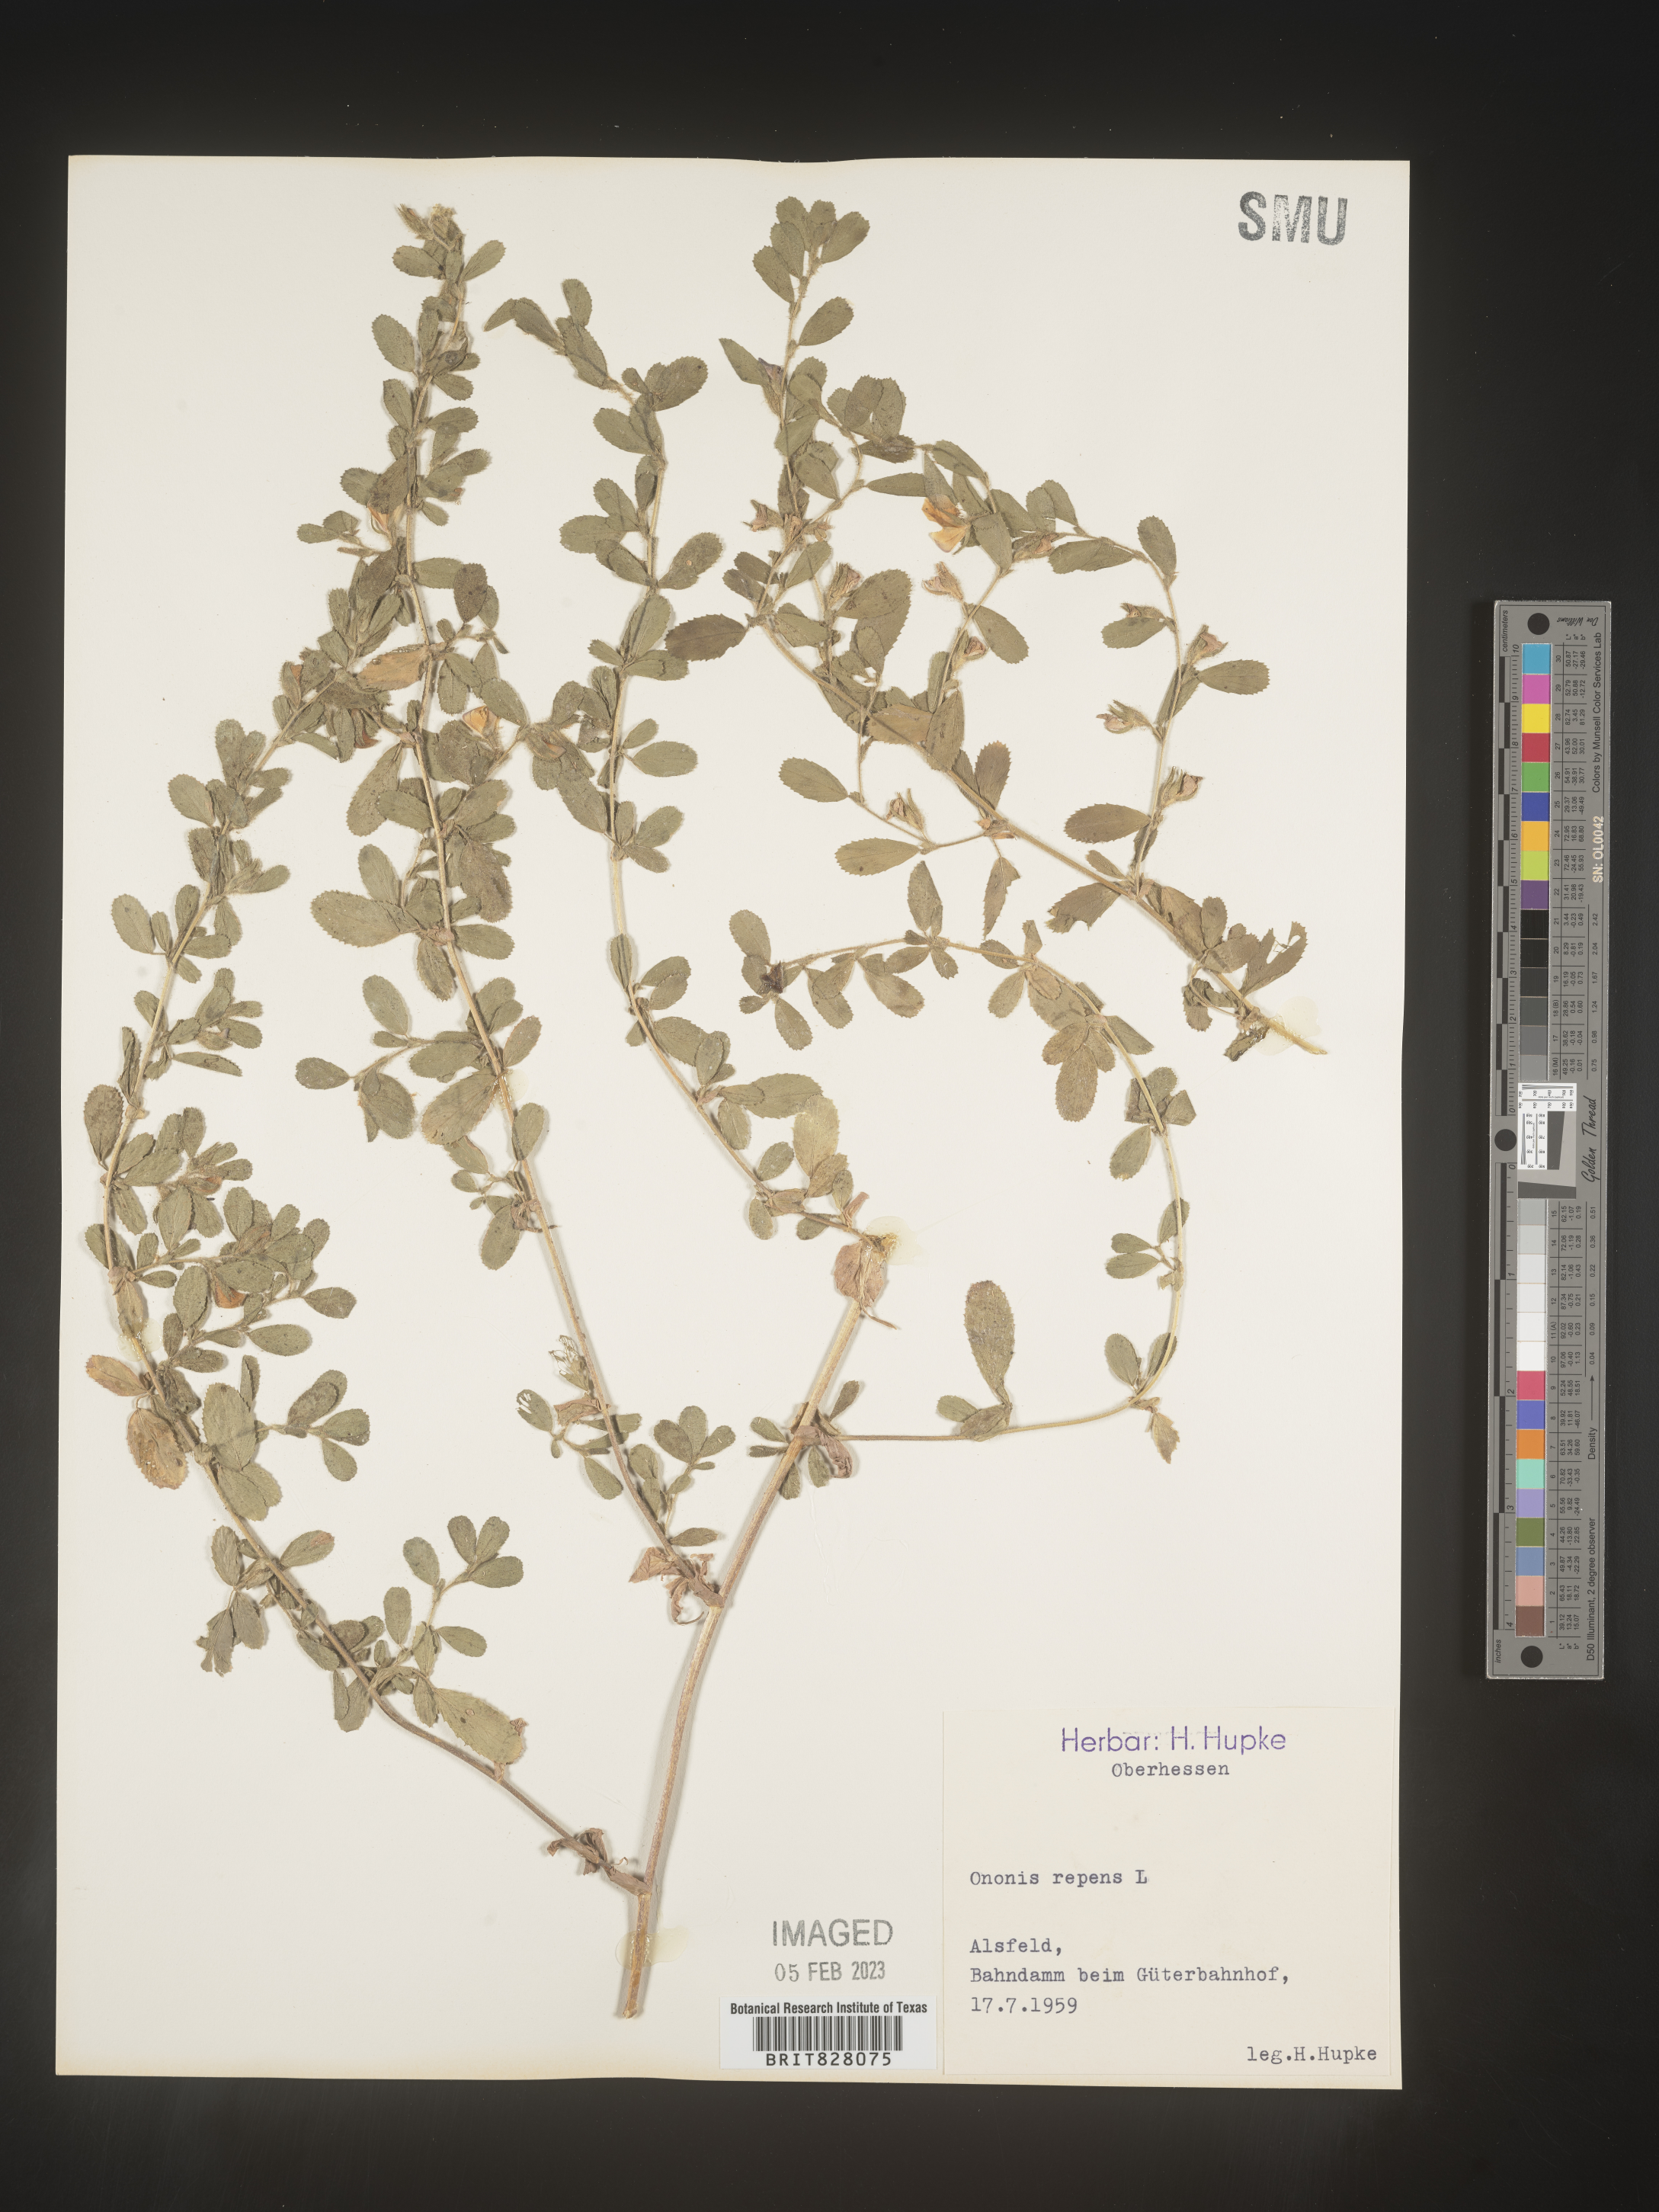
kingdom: Plantae
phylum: Tracheophyta
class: Magnoliopsida
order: Fabales
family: Fabaceae
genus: Ononis
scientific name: Ononis
